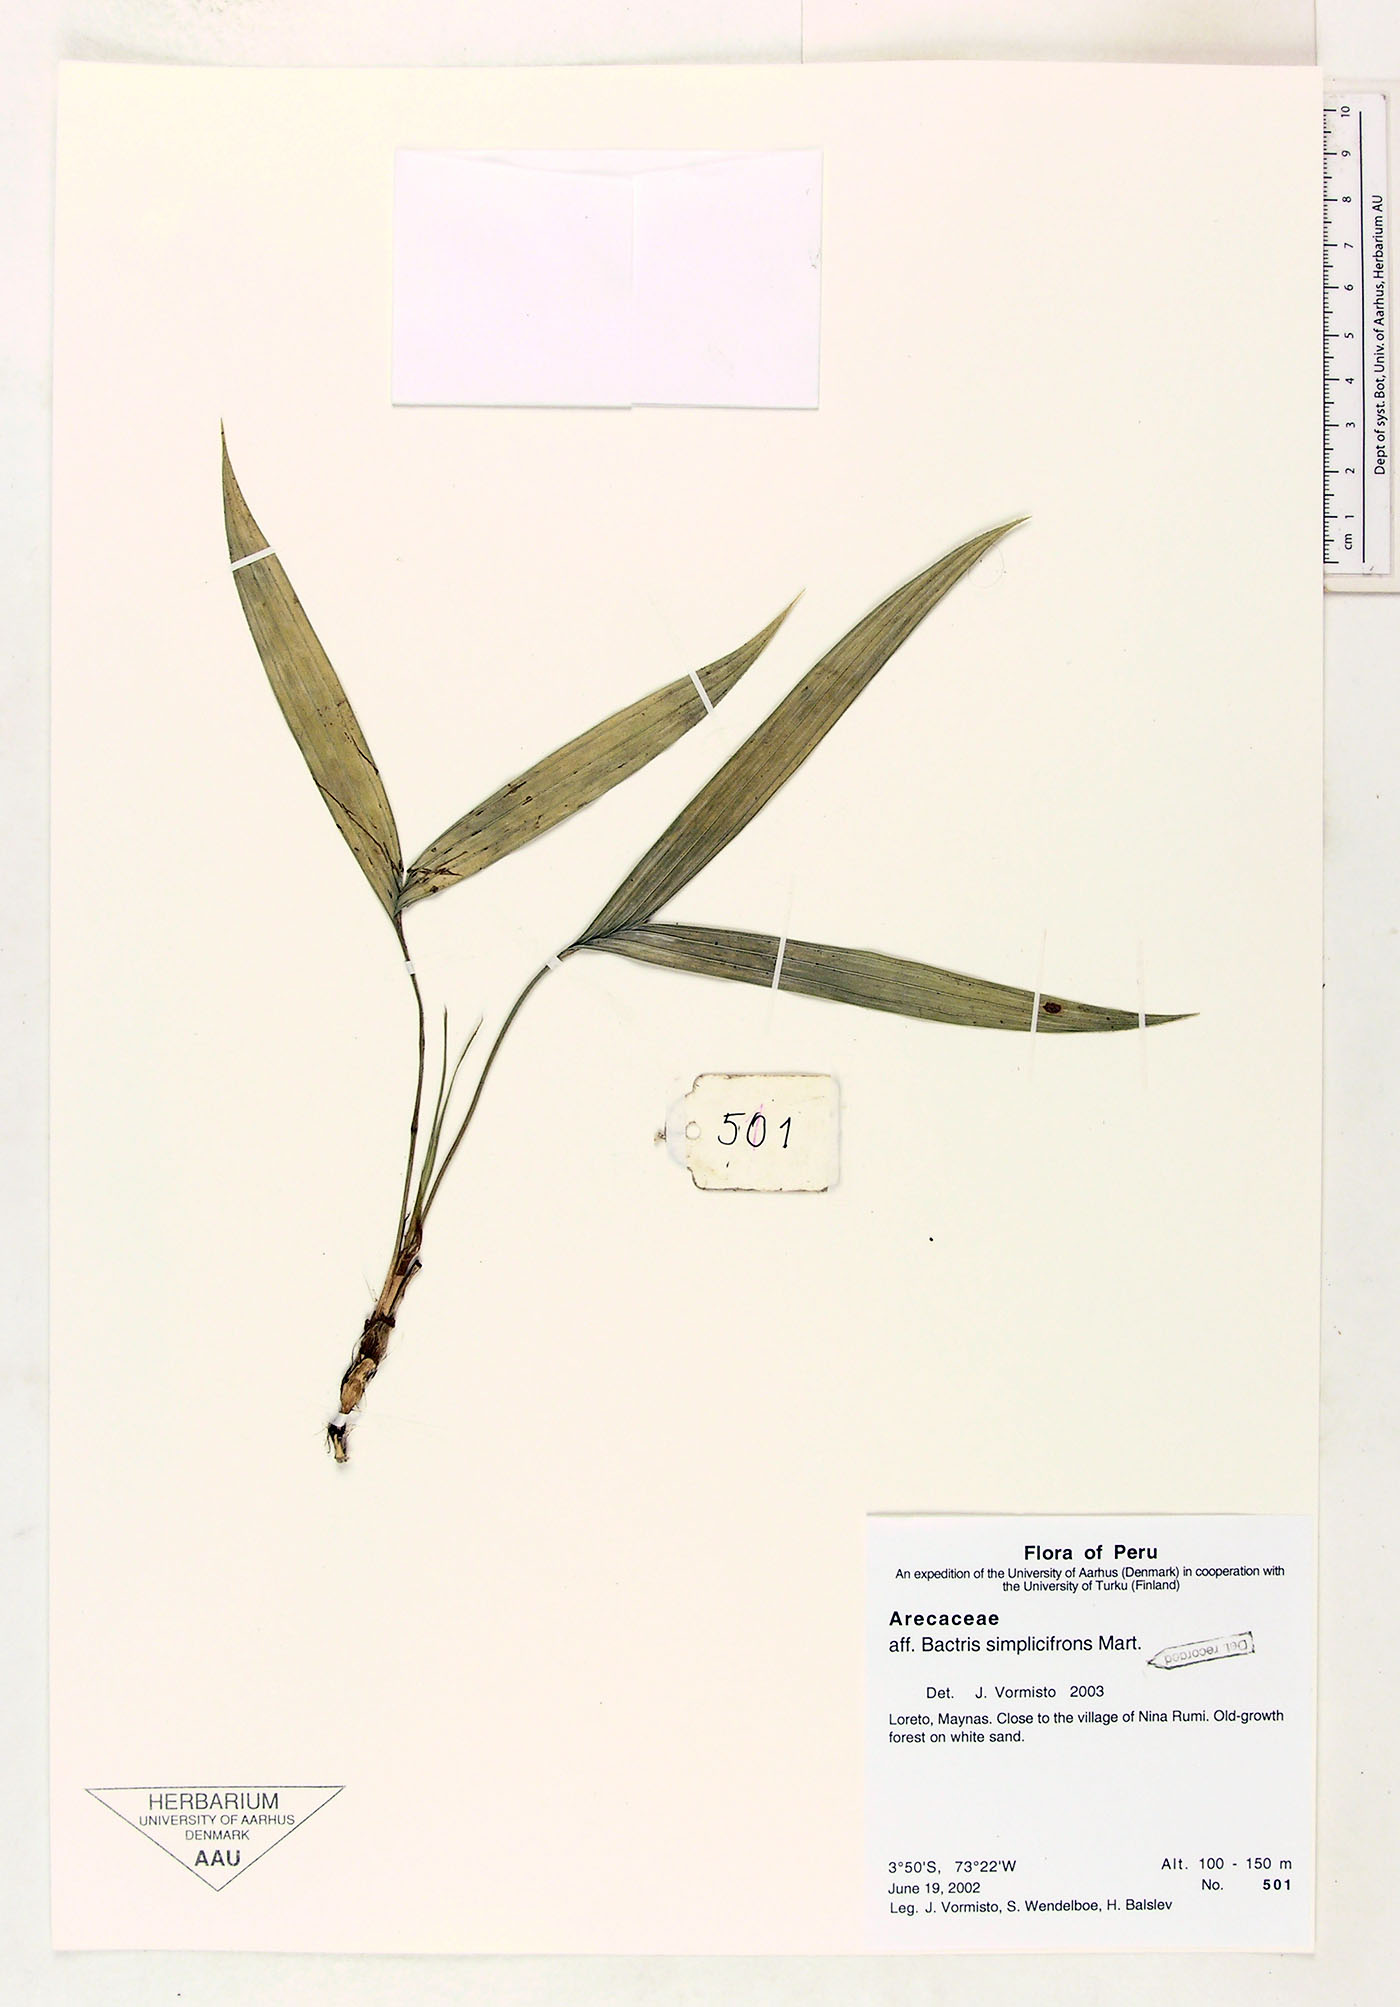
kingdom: Plantae
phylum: Tracheophyta
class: Liliopsida
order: Arecales
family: Arecaceae
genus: Bactris
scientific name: Bactris simplicifrons
